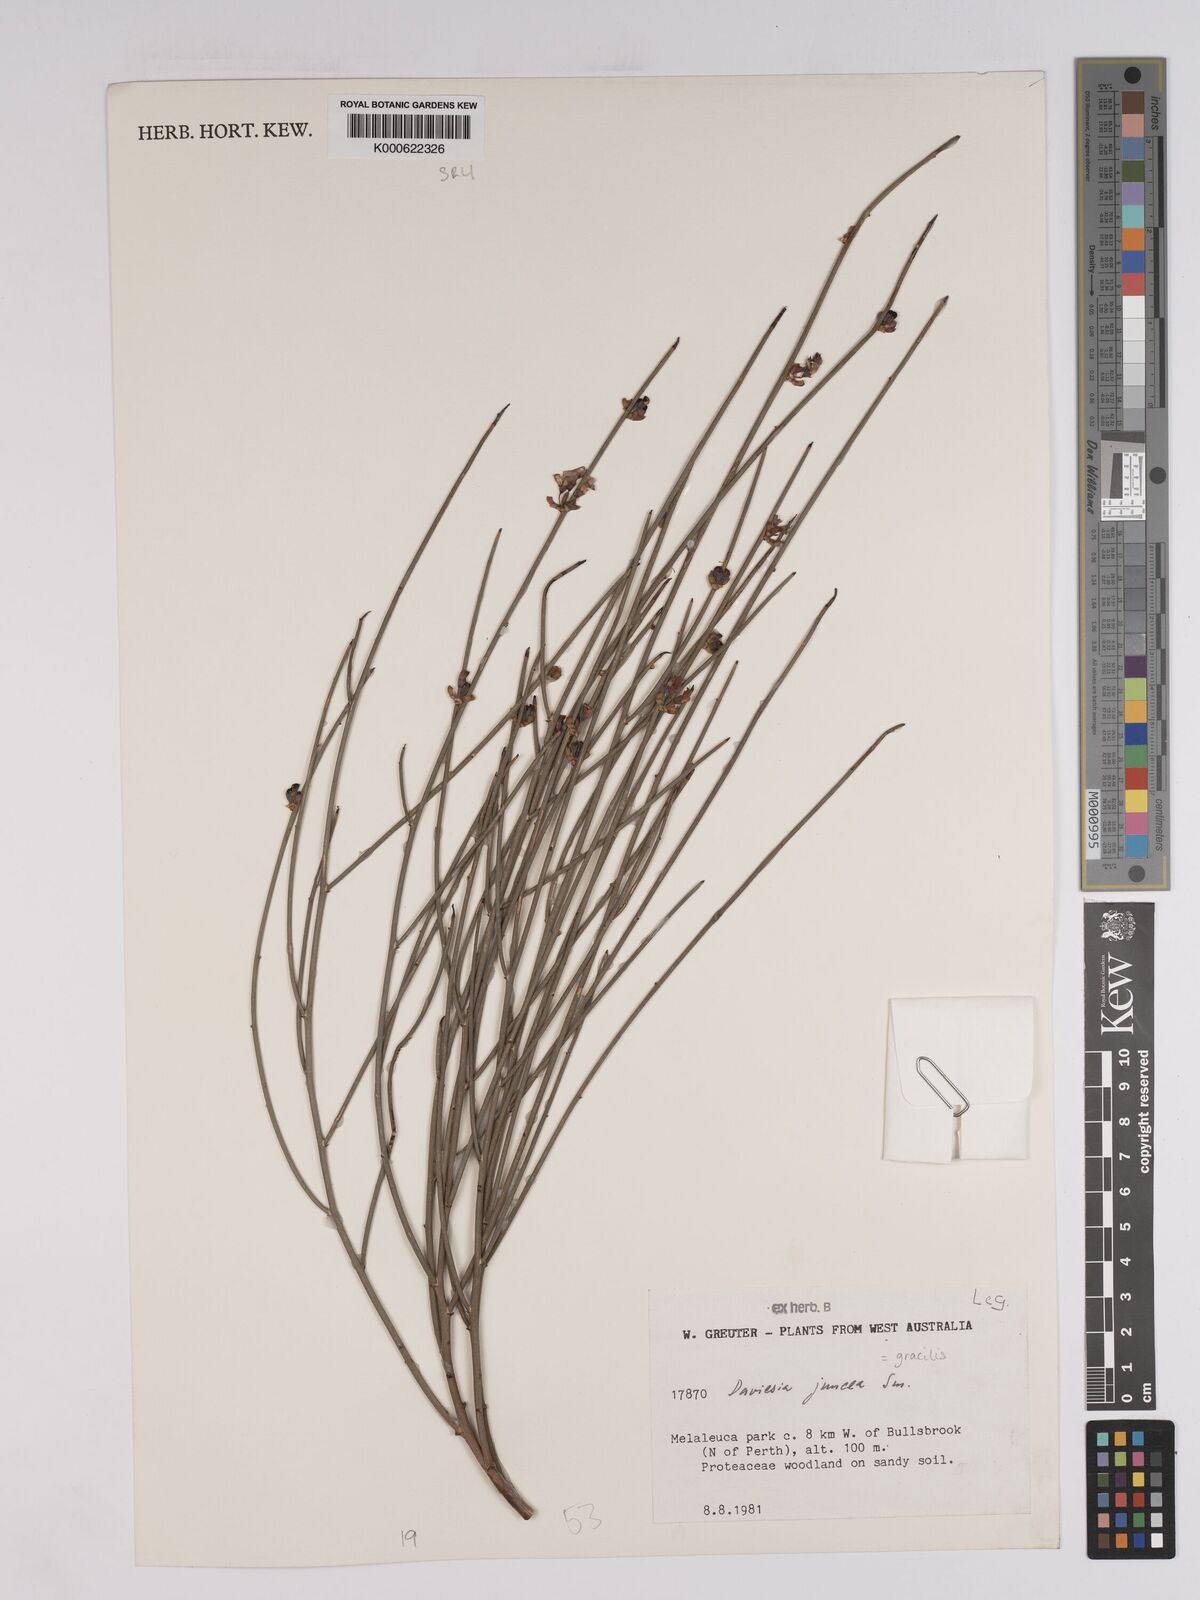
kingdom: Plantae
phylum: Tracheophyta
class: Magnoliopsida
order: Fabales
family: Fabaceae
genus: Daviesia
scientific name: Daviesia gracilis
